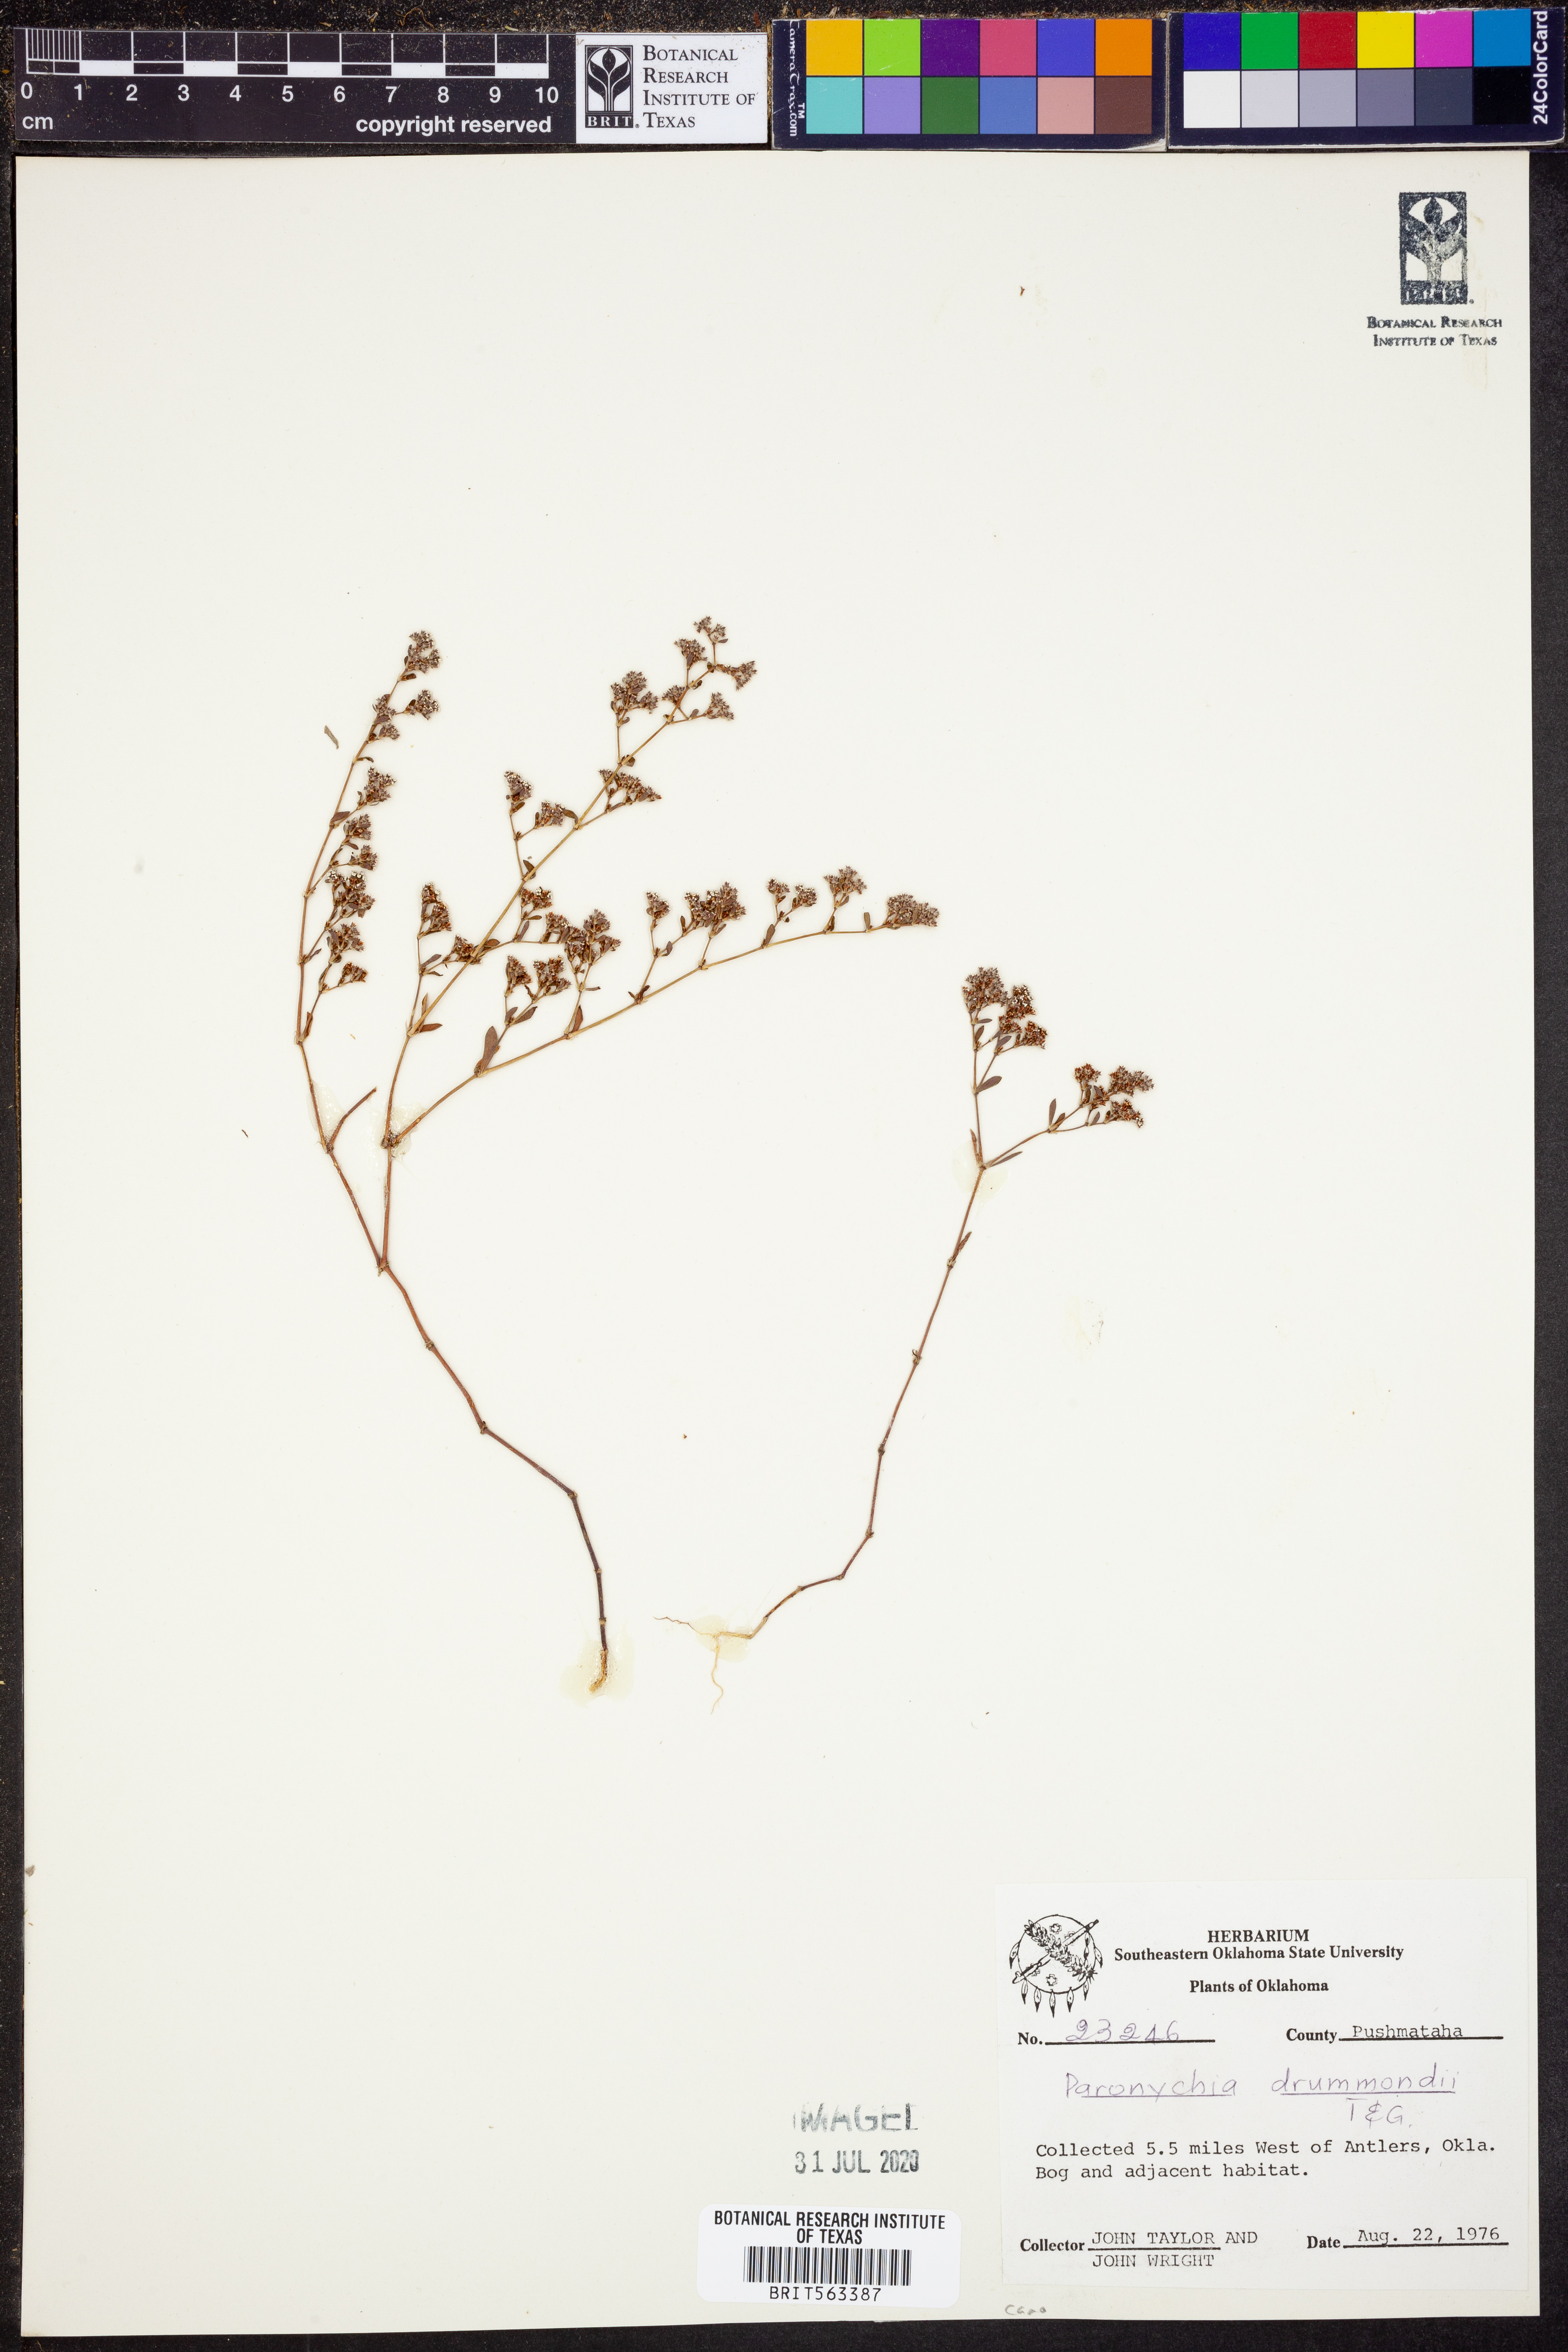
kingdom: Plantae
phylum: Tracheophyta
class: Magnoliopsida
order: Caryophyllales
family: Caryophyllaceae
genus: Paronychia
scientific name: Paronychia drummondii
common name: Drummond's nailwort
